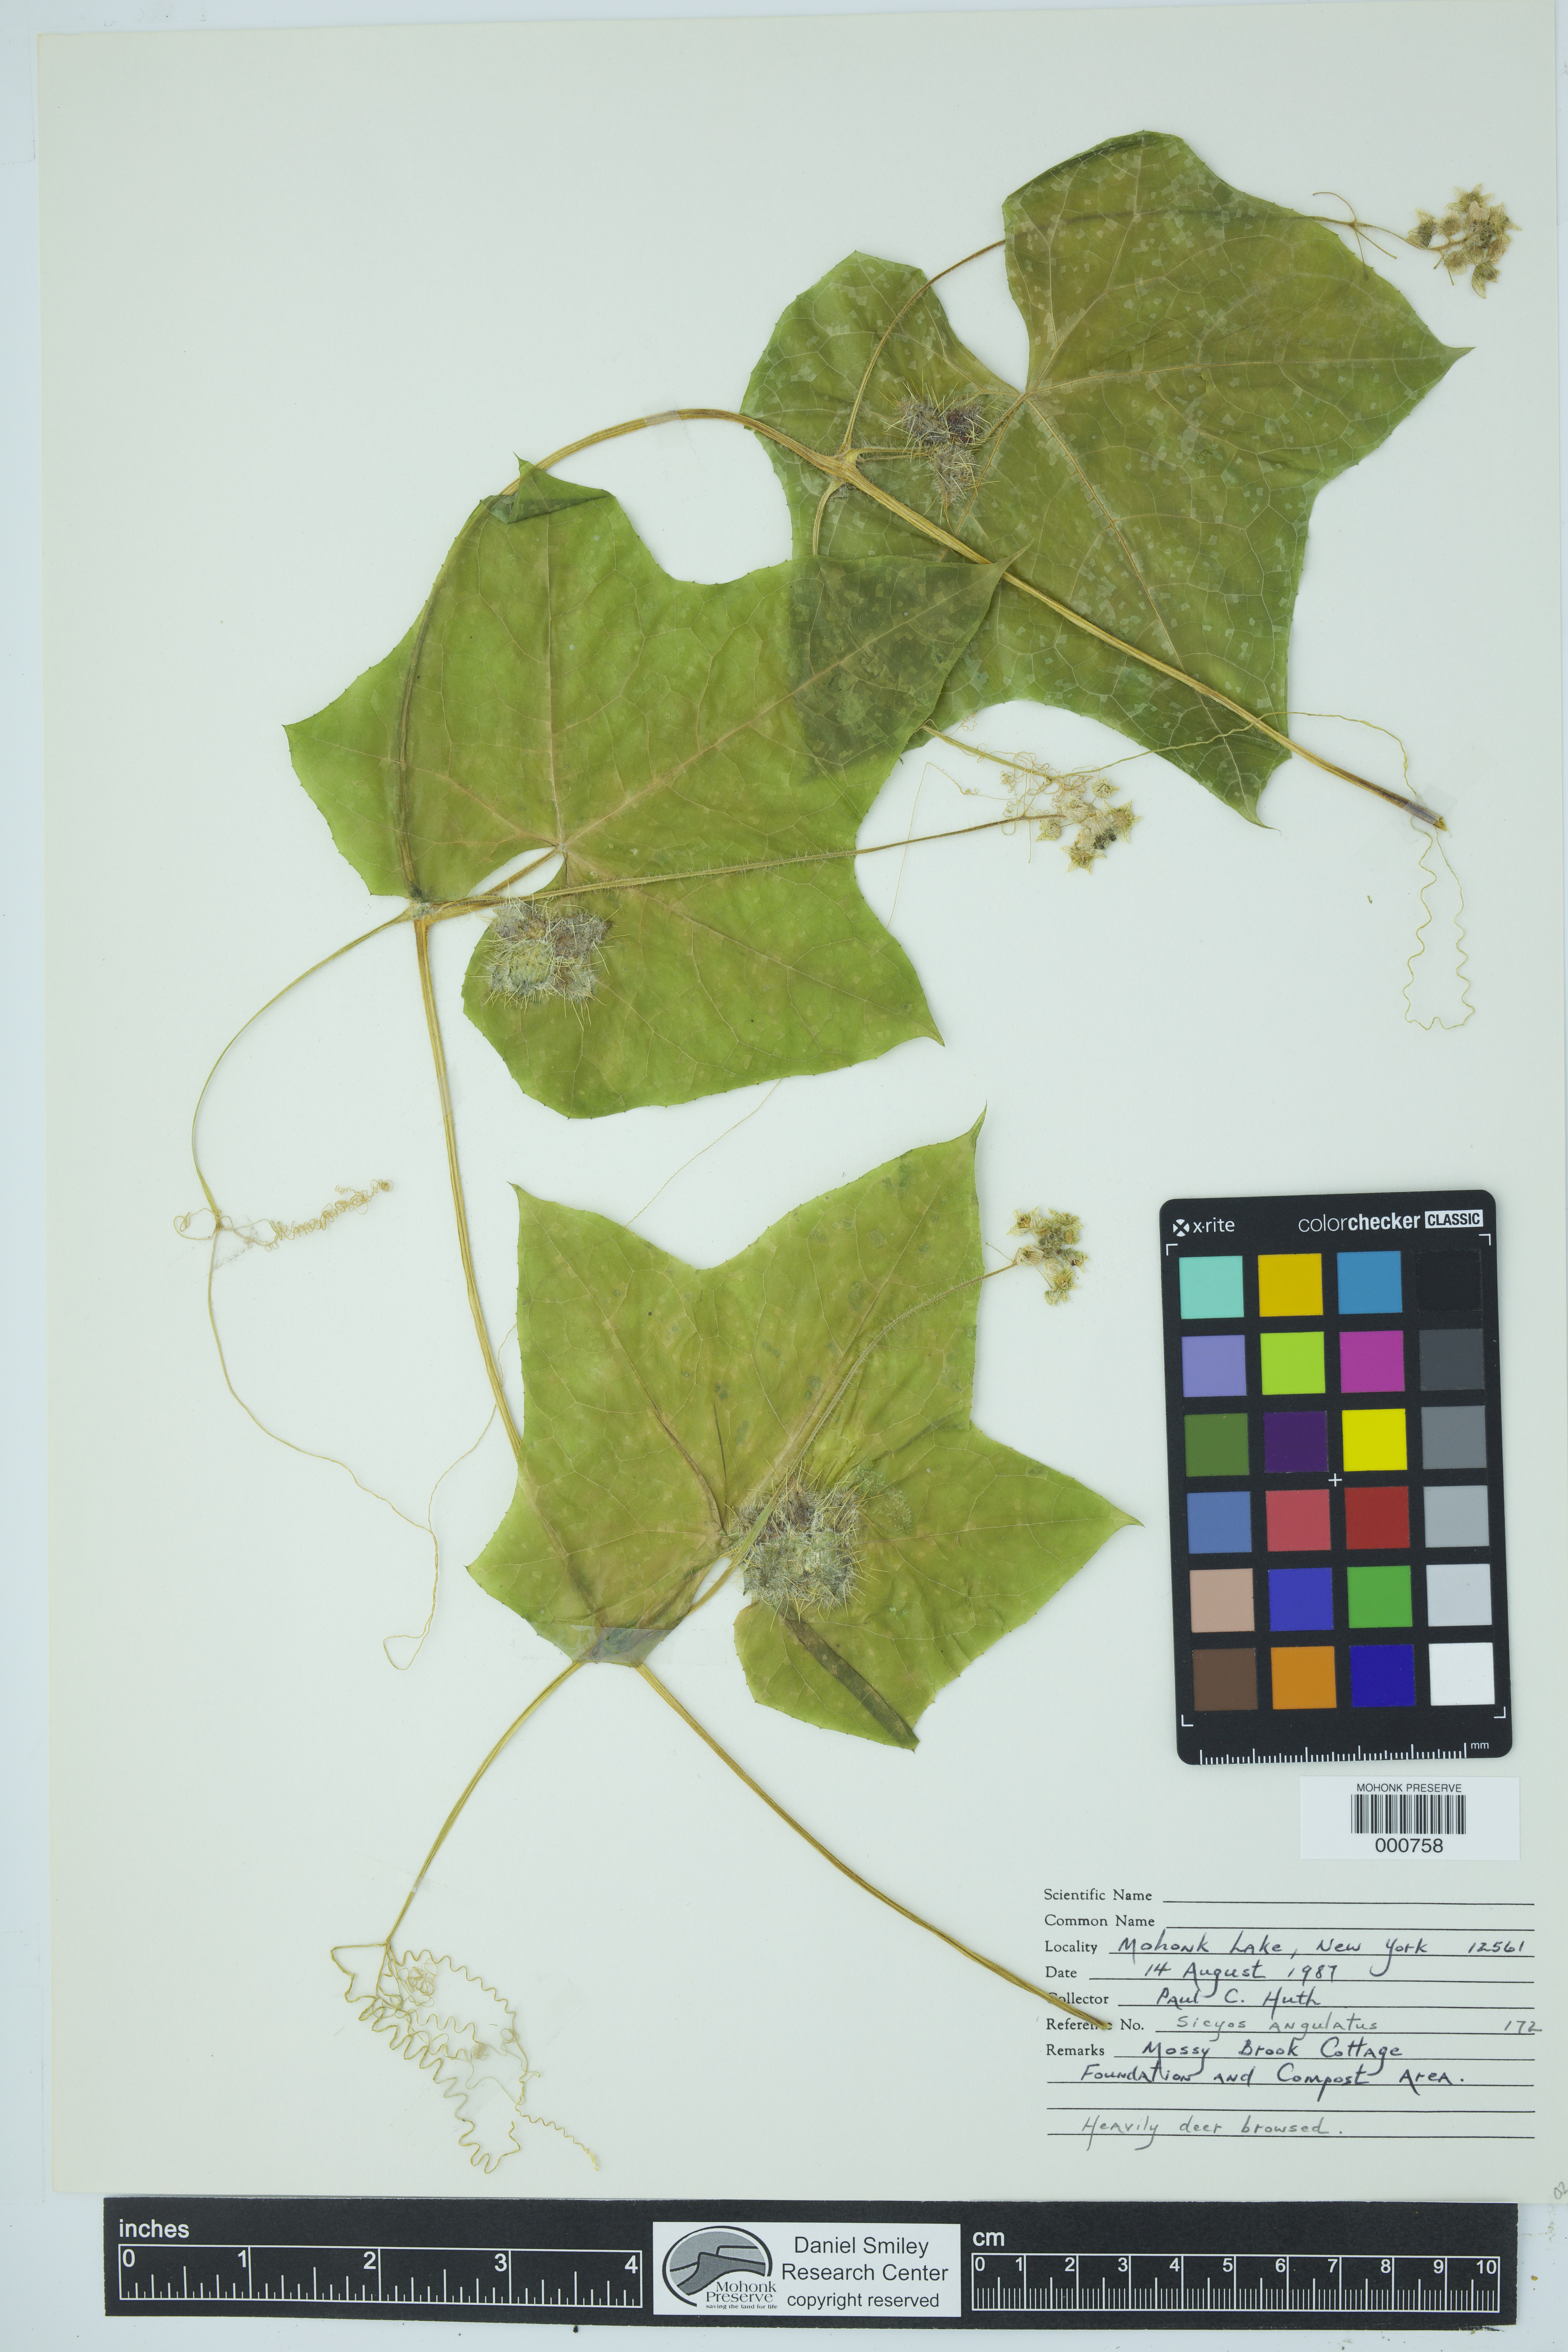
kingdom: Plantae
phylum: Tracheophyta
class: Magnoliopsida
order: Cucurbitales
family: Cucurbitaceae
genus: Sicyos
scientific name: Sicyos angulatus
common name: Angled burr cucumber
